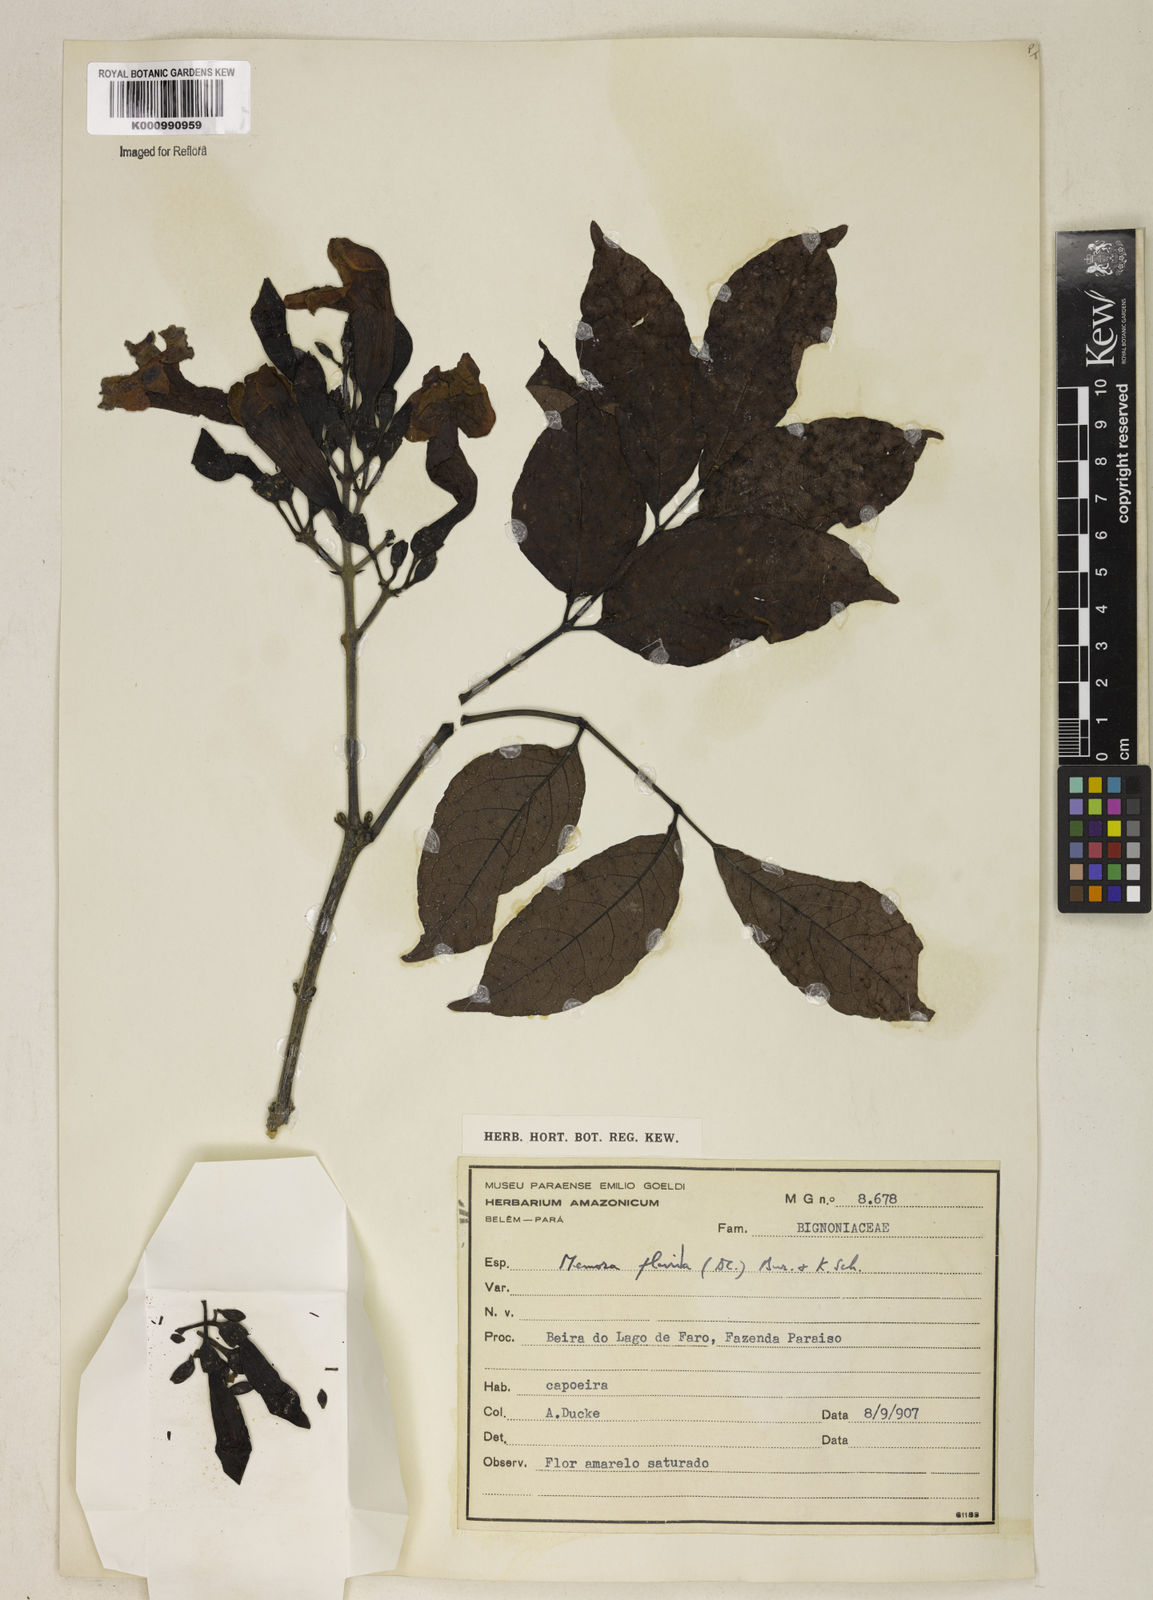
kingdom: Plantae
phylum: Tracheophyta
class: Magnoliopsida
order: Lamiales
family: Bignoniaceae
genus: Adenocalymma
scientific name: Adenocalymma neoflavidum
